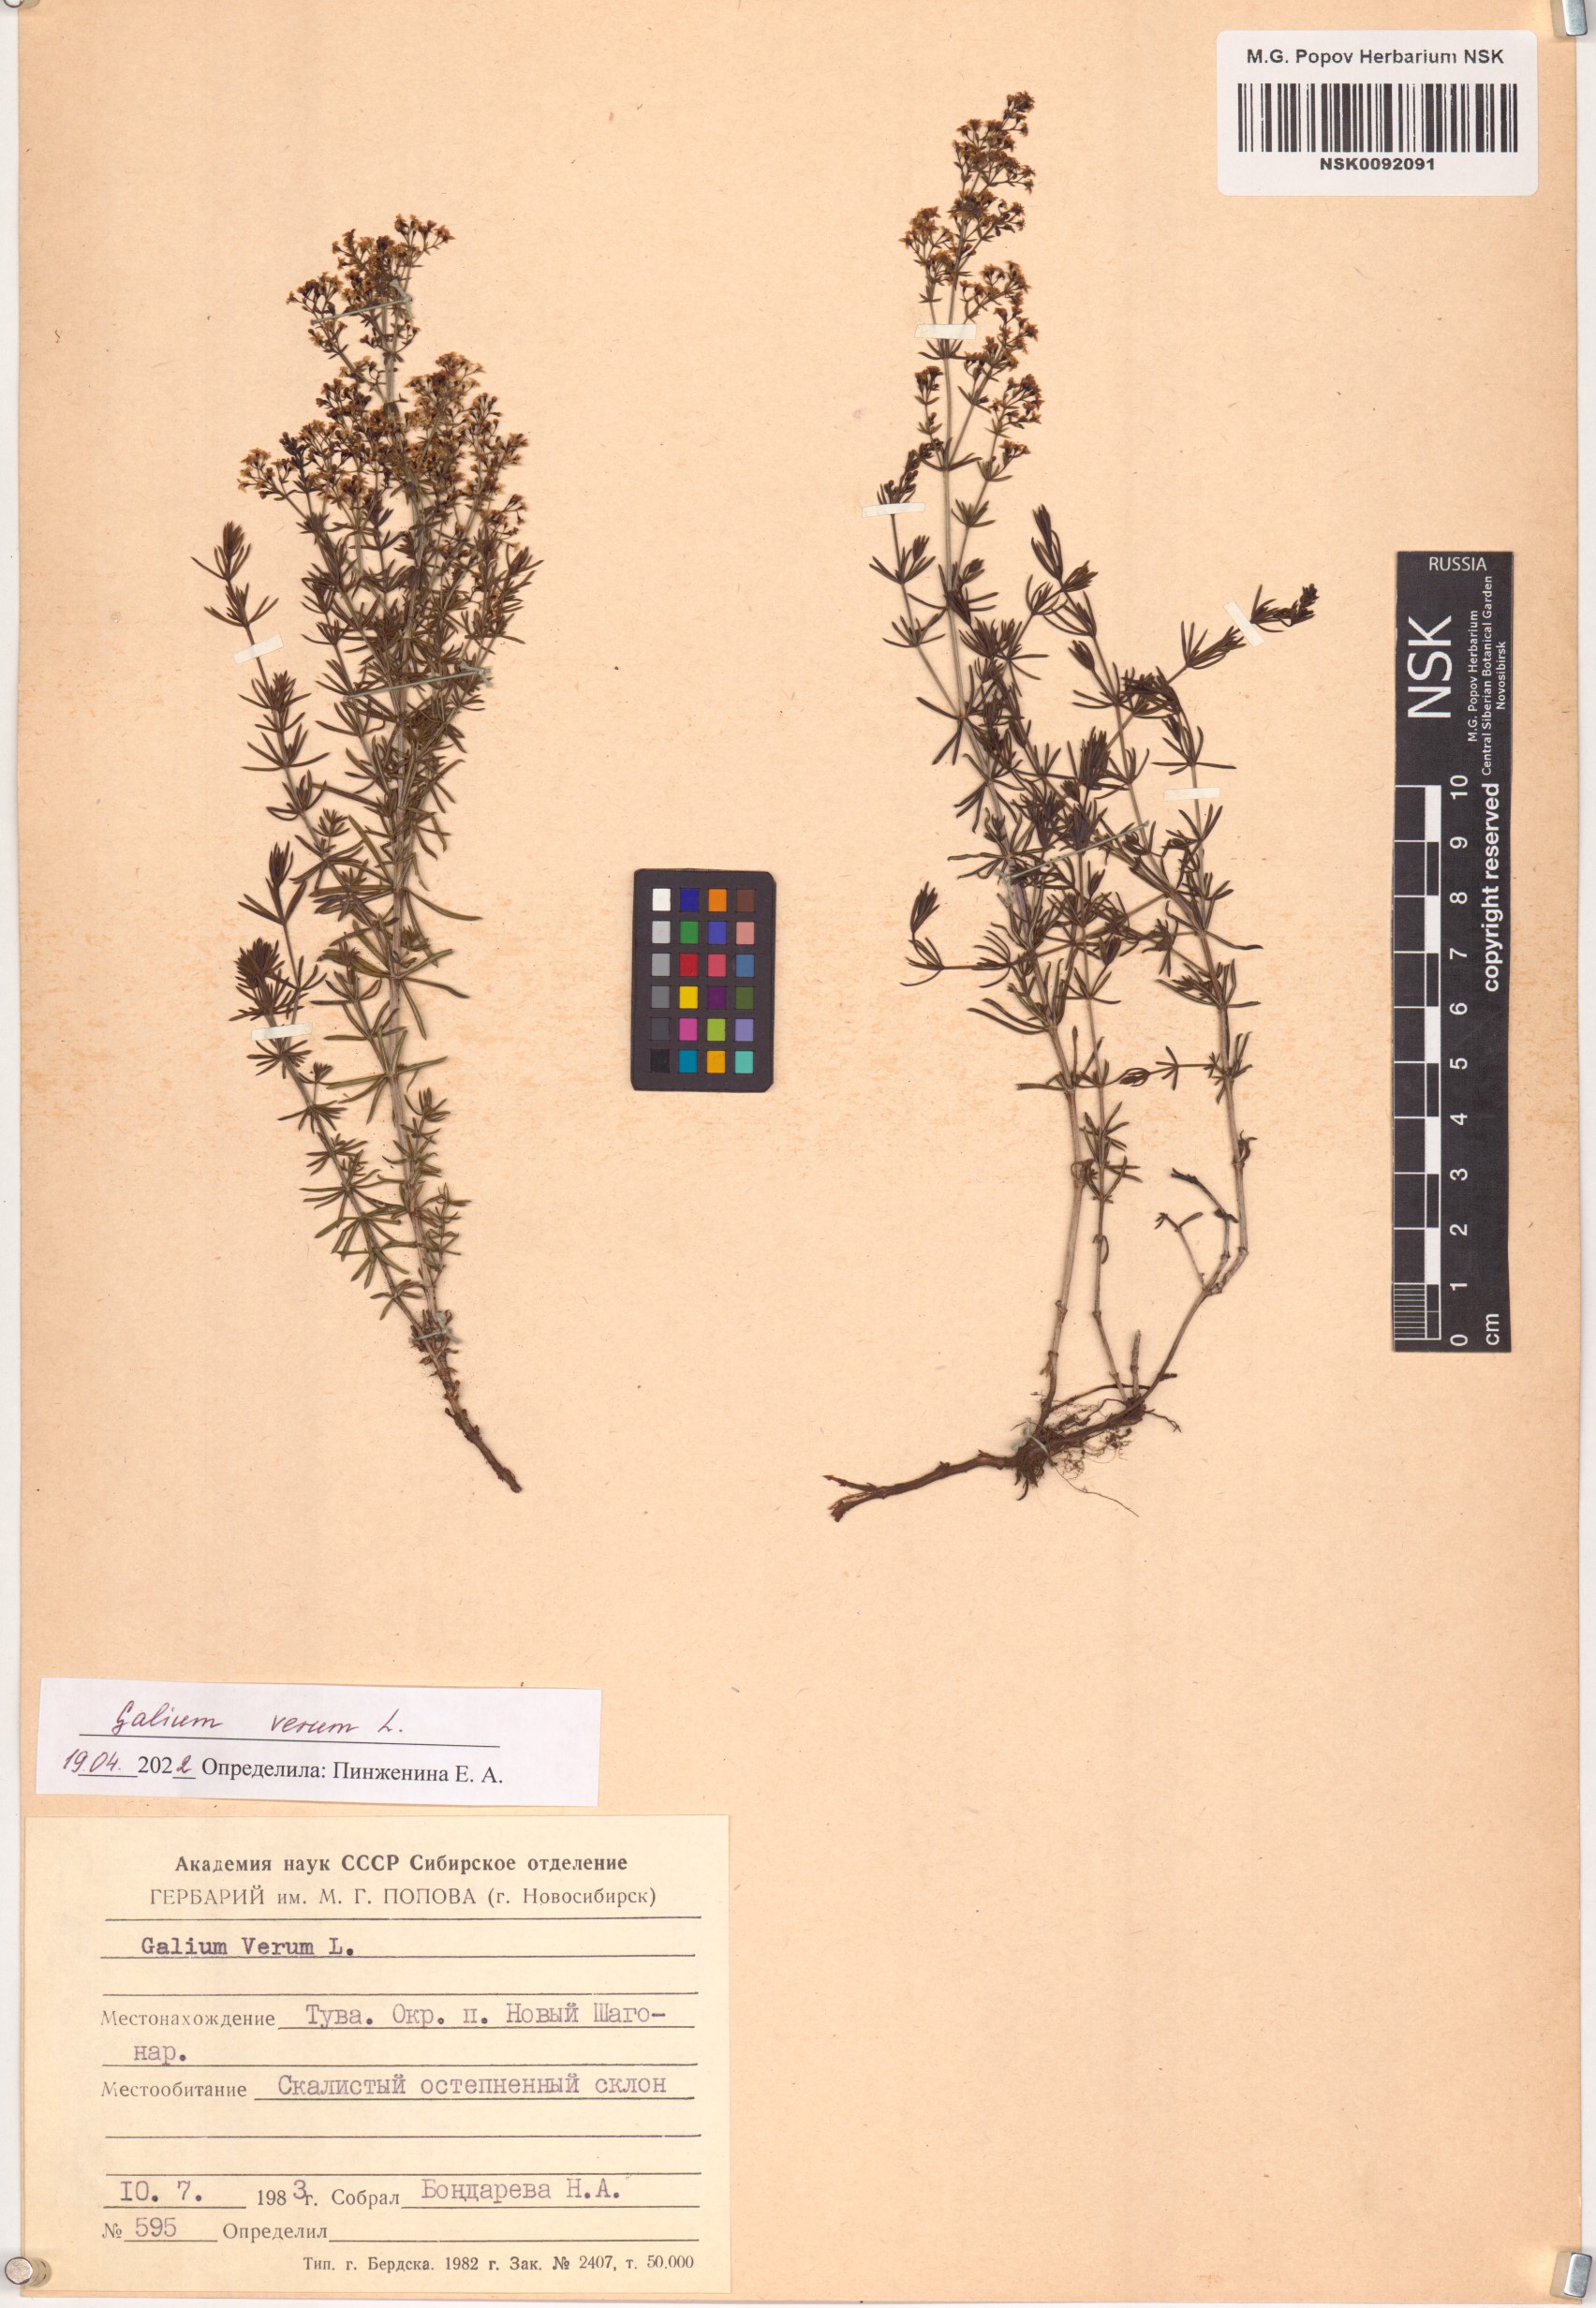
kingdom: Plantae
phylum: Tracheophyta
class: Magnoliopsida
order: Gentianales
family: Rubiaceae
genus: Galium
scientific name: Galium verum
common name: Lady's bedstraw
